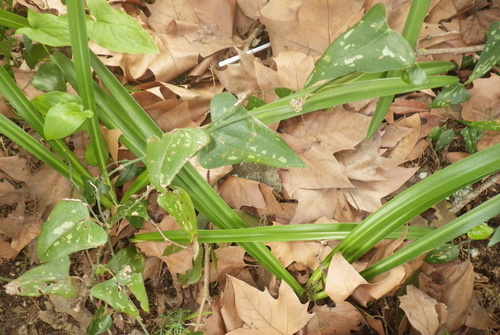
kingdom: Plantae
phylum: Tracheophyta
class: Liliopsida
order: Liliales
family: Smilacaceae
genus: Smilax
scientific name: Smilax aspera
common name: Common smilax
